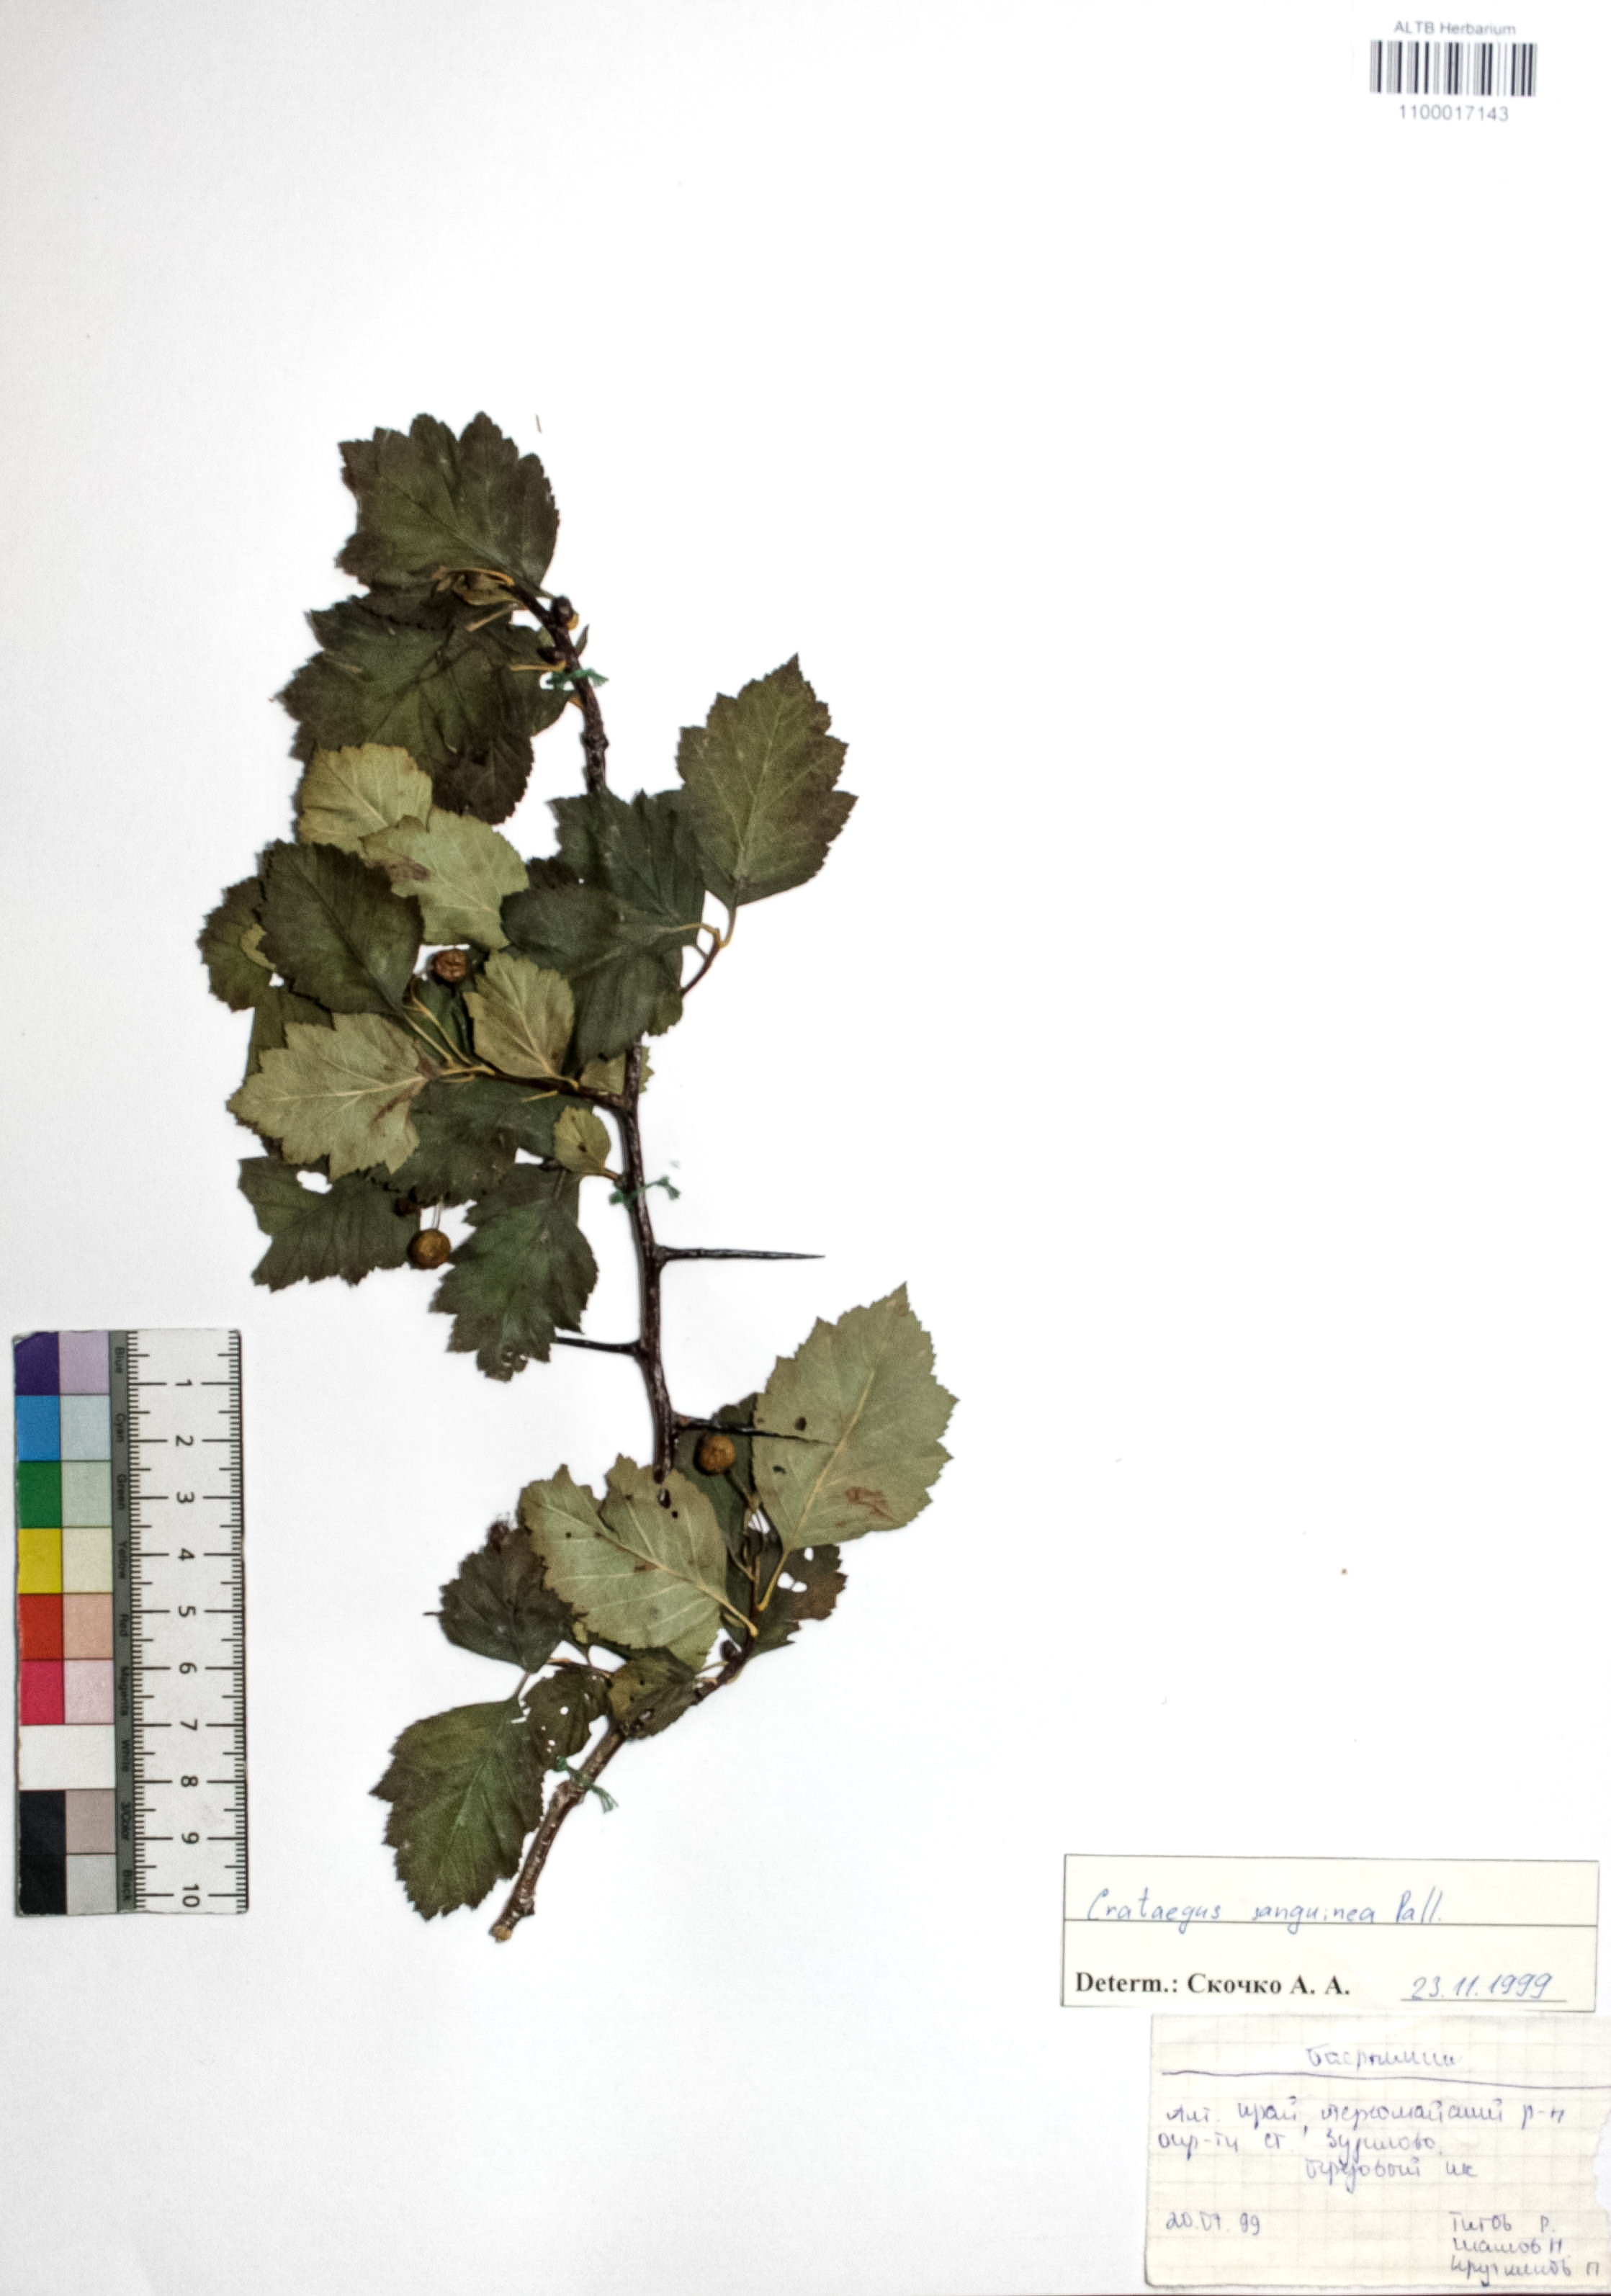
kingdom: Plantae
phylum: Tracheophyta
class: Magnoliopsida
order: Rosales
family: Rosaceae
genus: Crataegus
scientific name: Crataegus sanguinea
